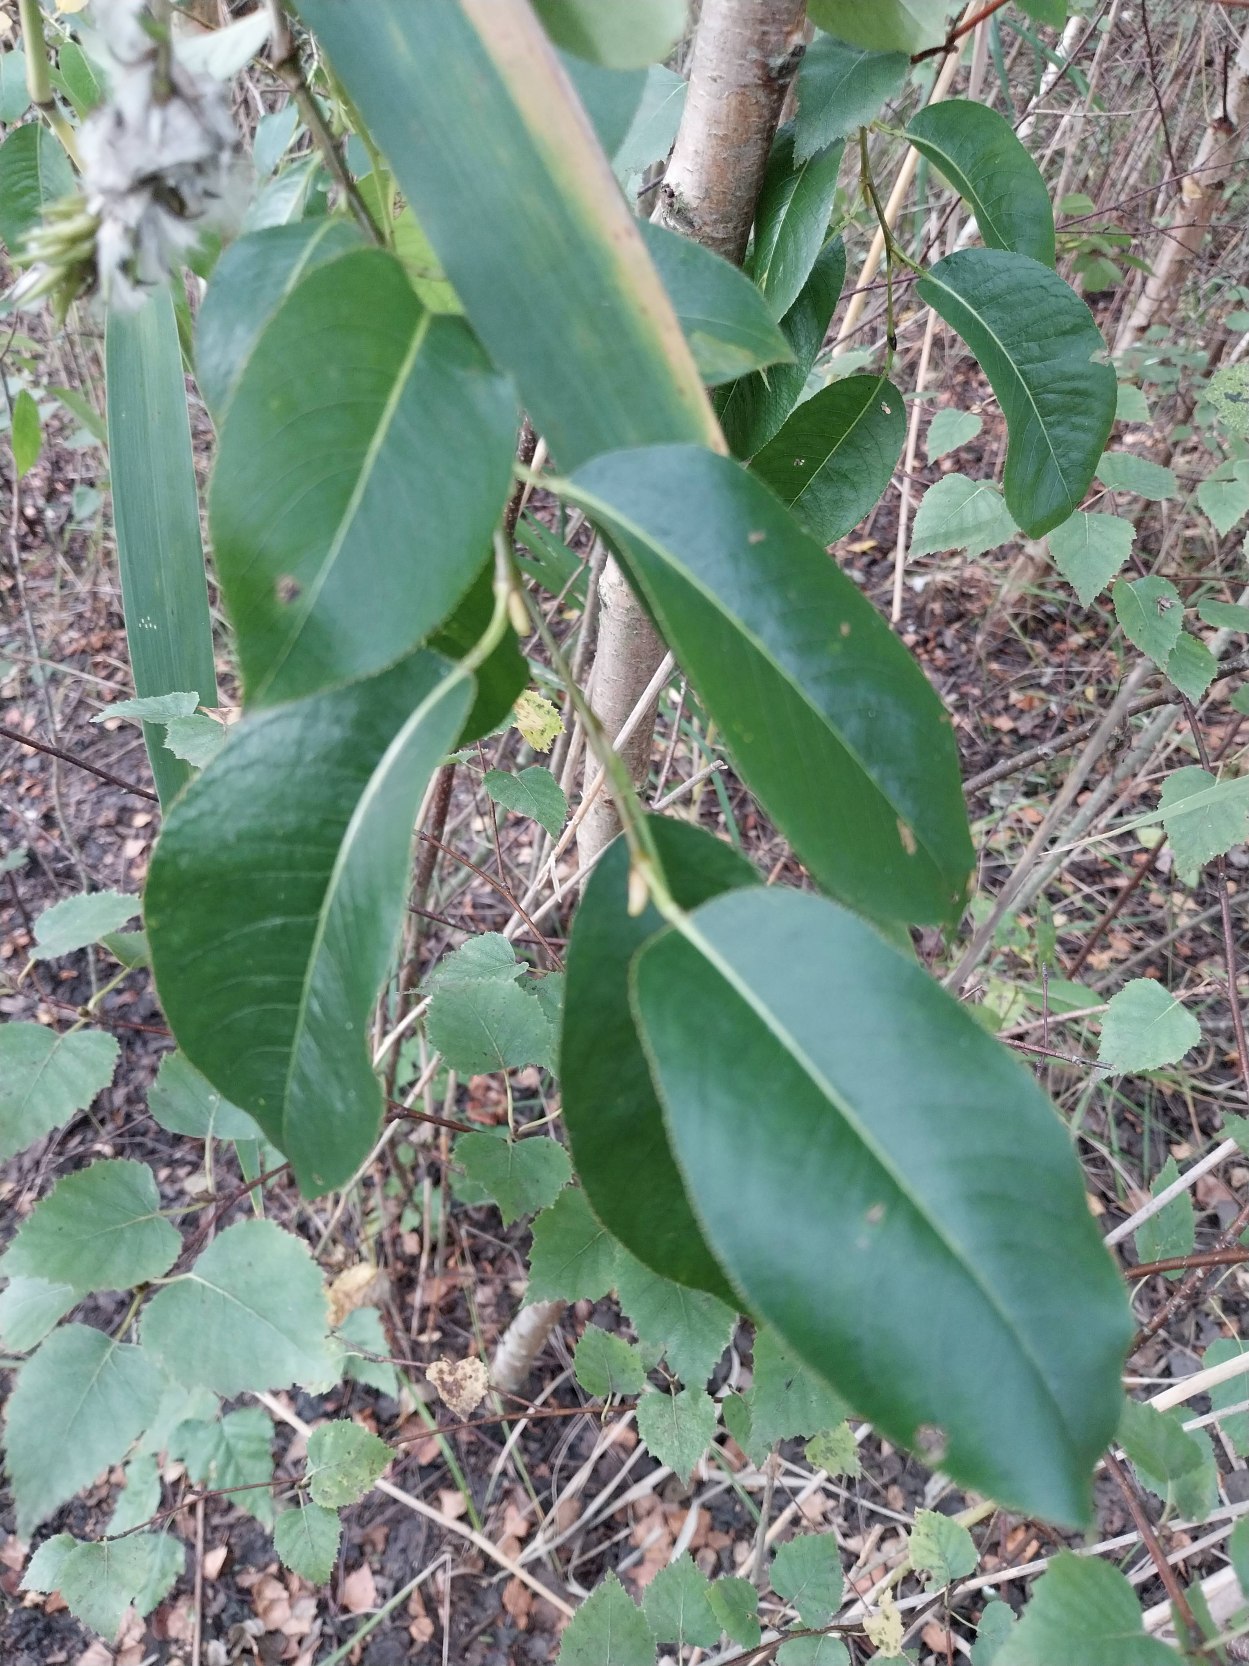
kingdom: Plantae
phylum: Tracheophyta
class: Magnoliopsida
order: Malpighiales
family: Salicaceae
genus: Salix
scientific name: Salix pentandra
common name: Femhannet pil
